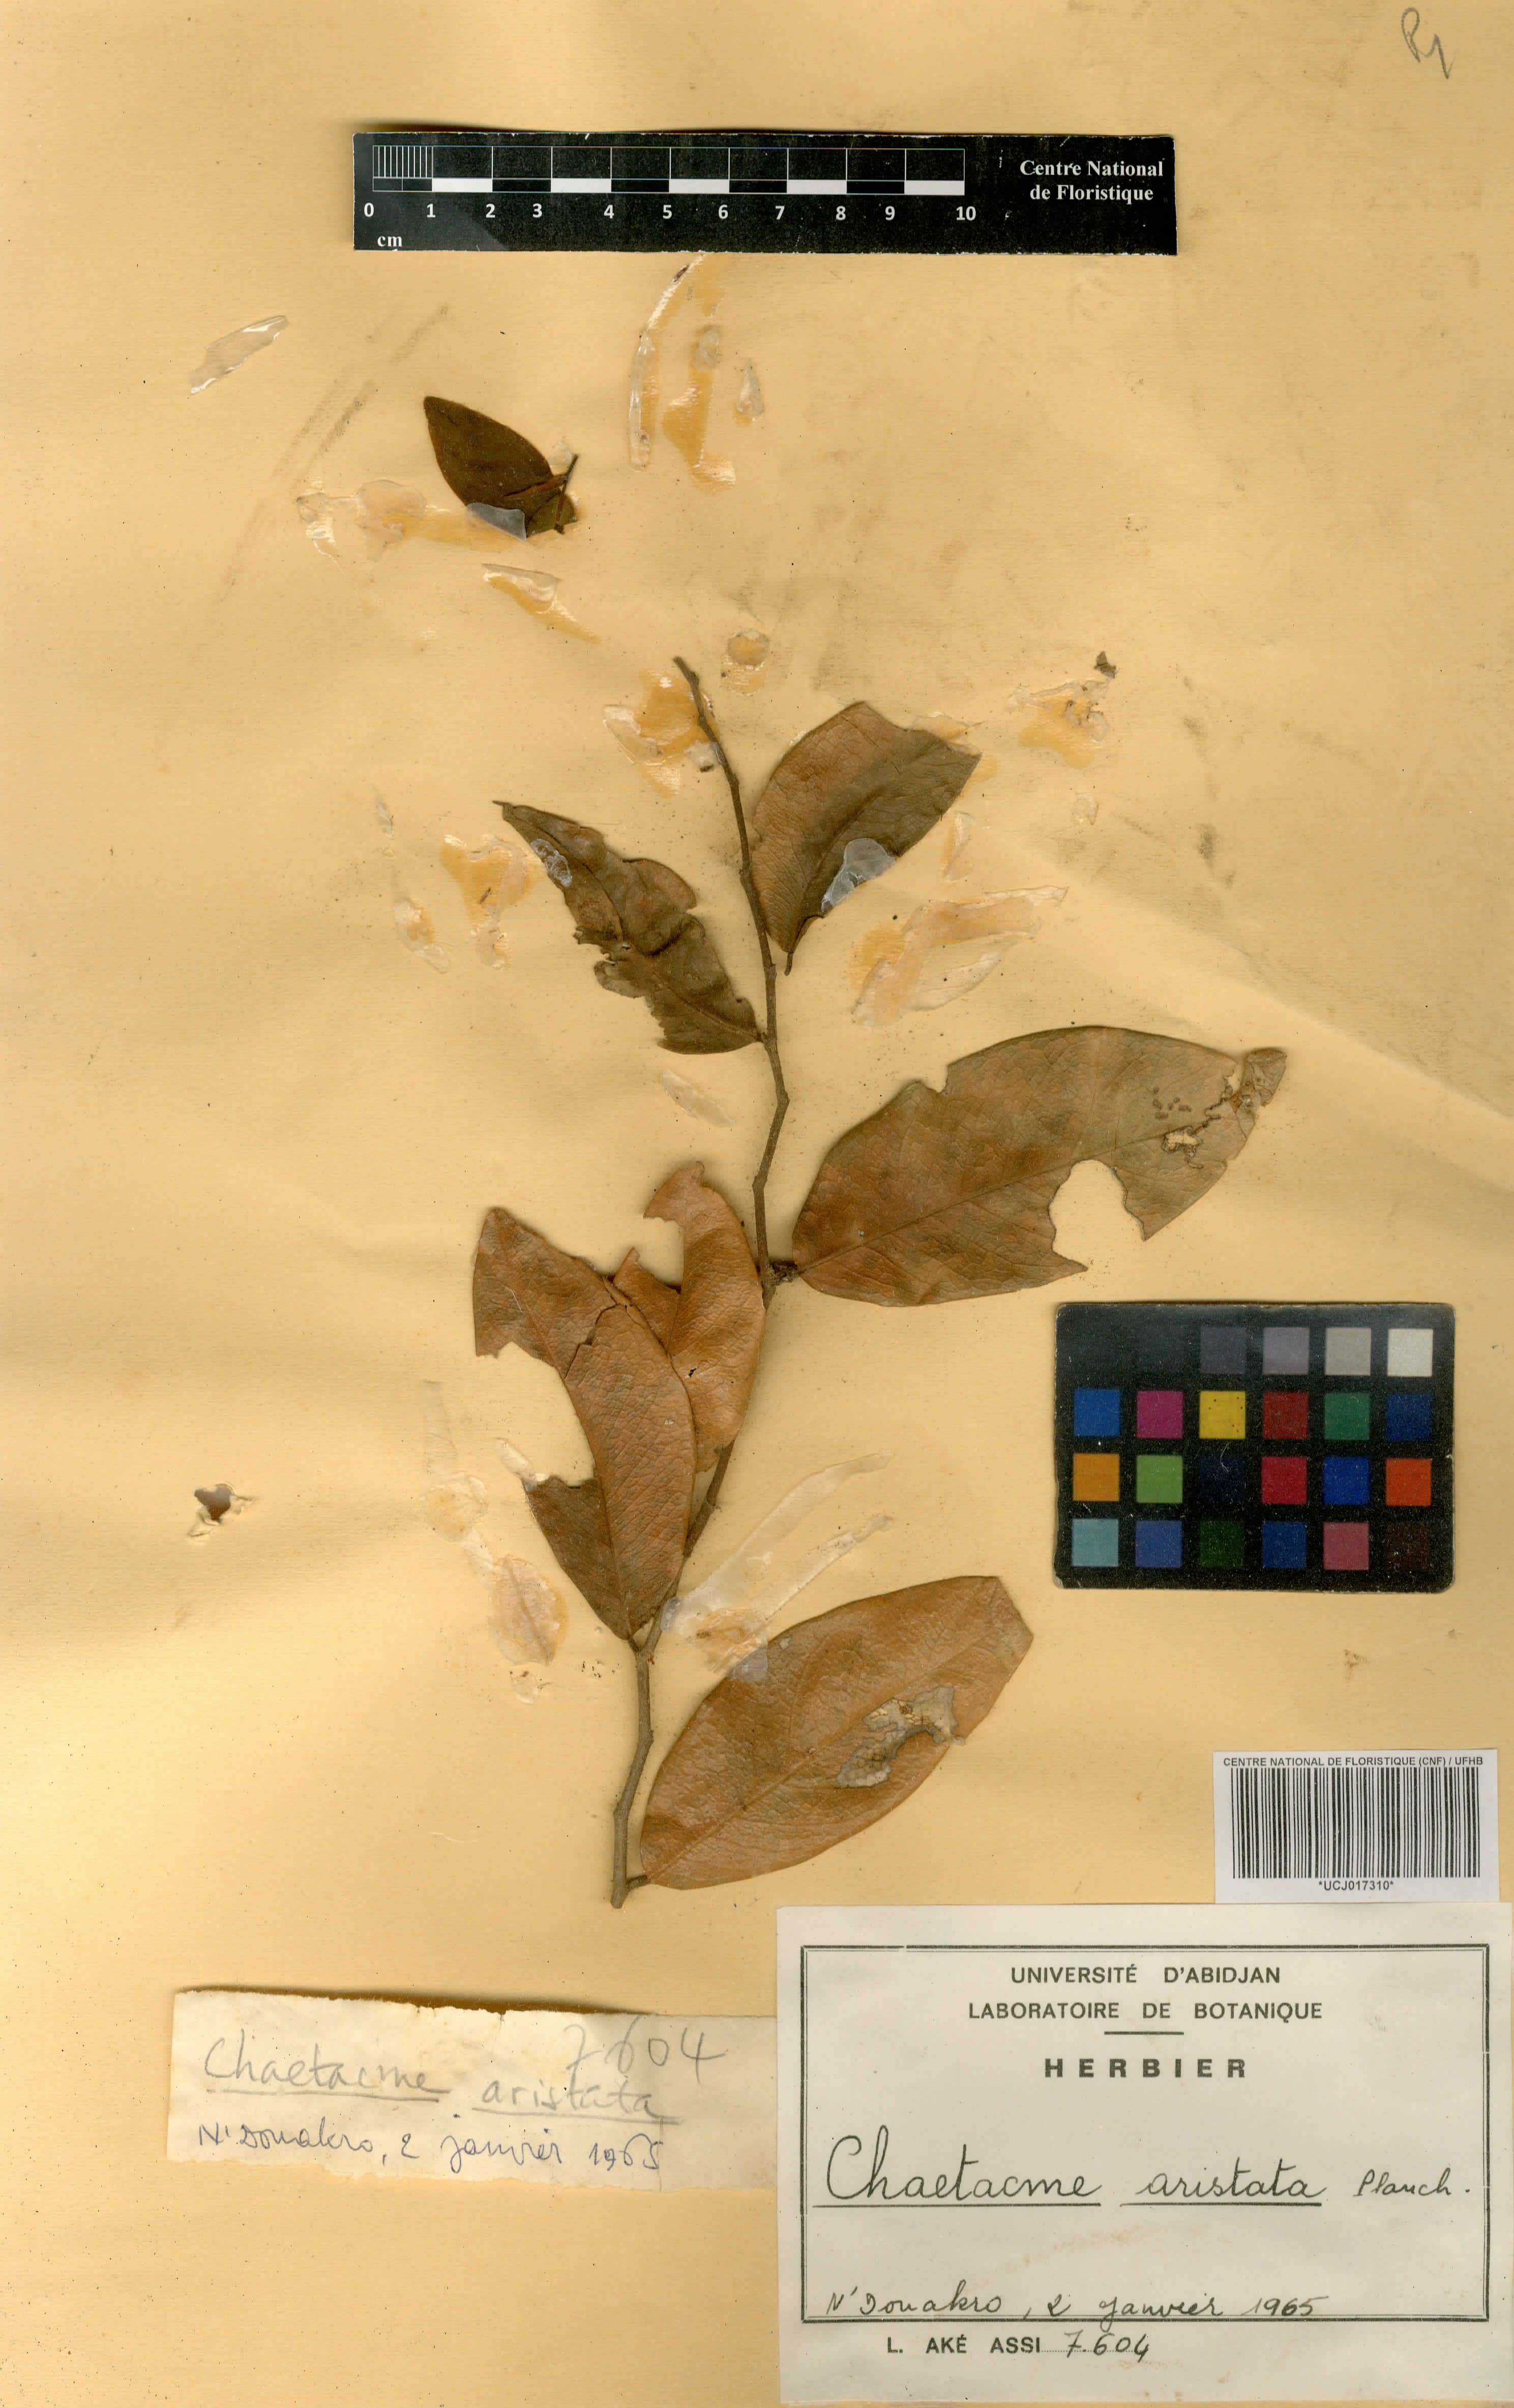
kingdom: Plantae
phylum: Tracheophyta
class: Magnoliopsida
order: Rosales
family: Cannabaceae
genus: Chaetachme
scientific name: Chaetachme aristata
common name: Thorny elm
